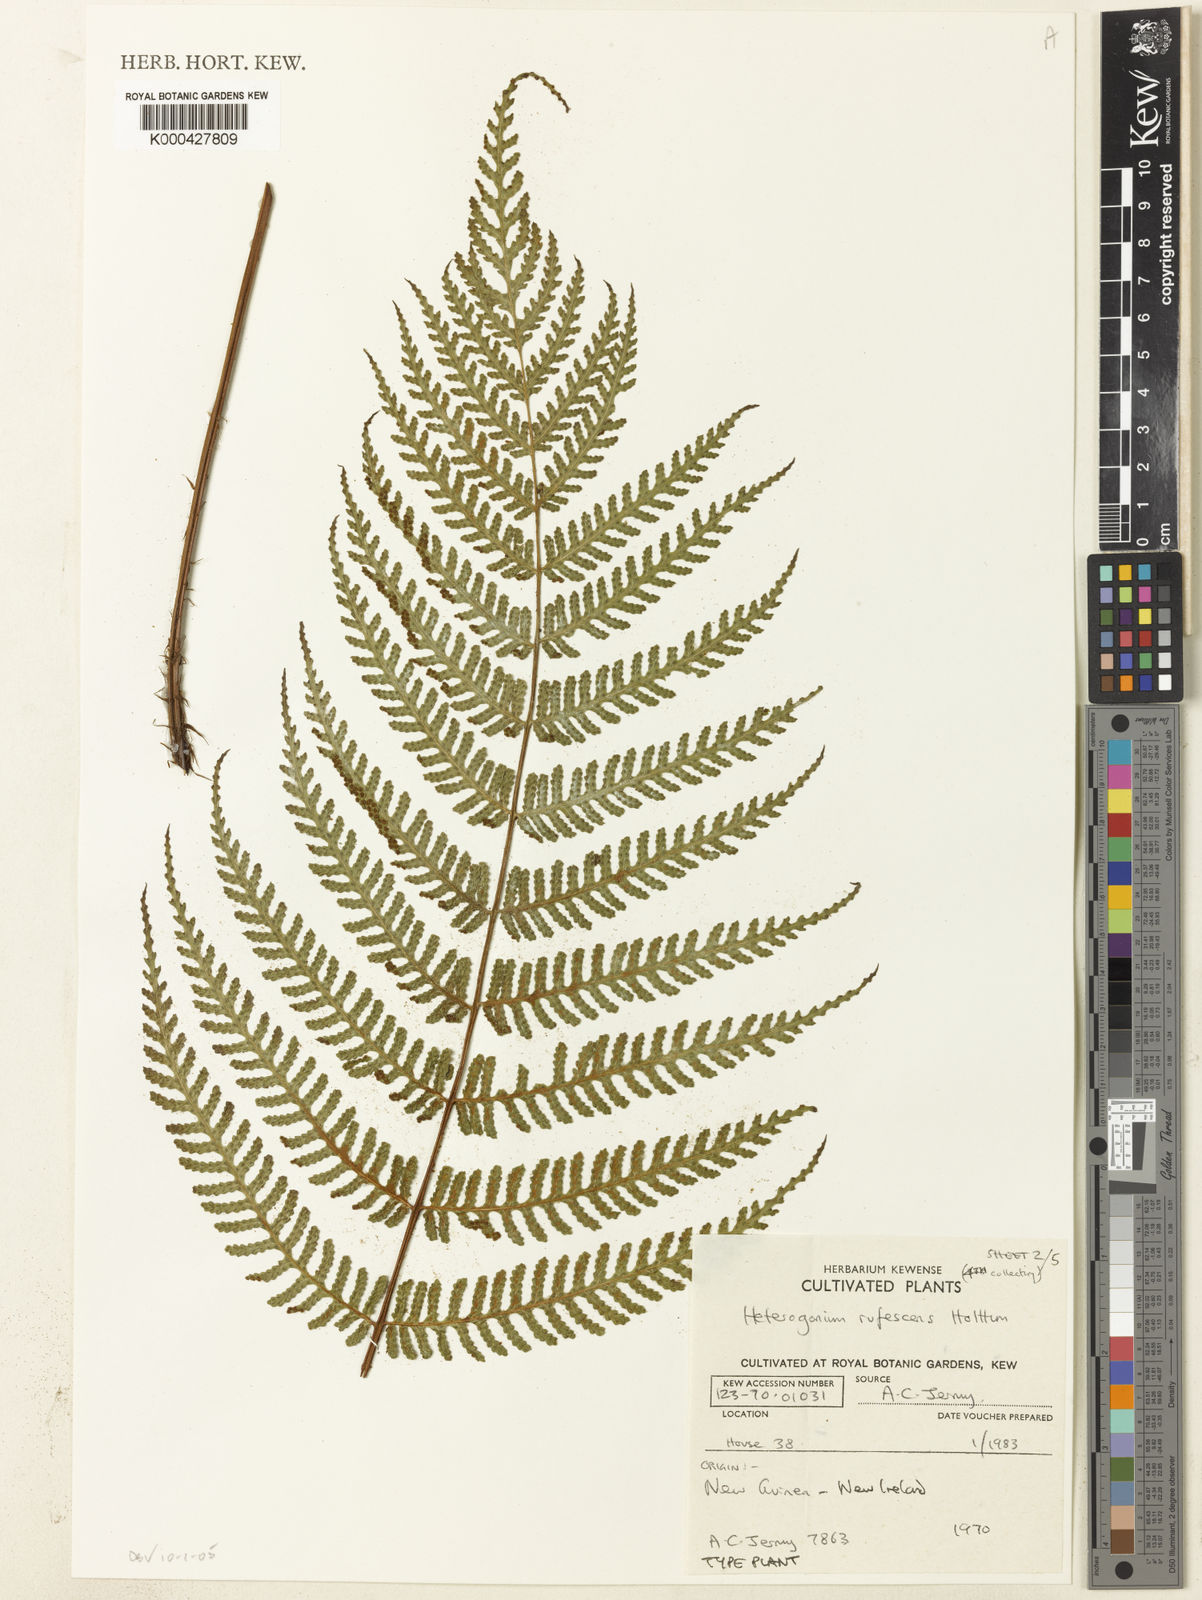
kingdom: Plantae
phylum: Tracheophyta
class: Polypodiopsida
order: Polypodiales
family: Tectariaceae
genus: Tectaria
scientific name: Tectaria jermyi
